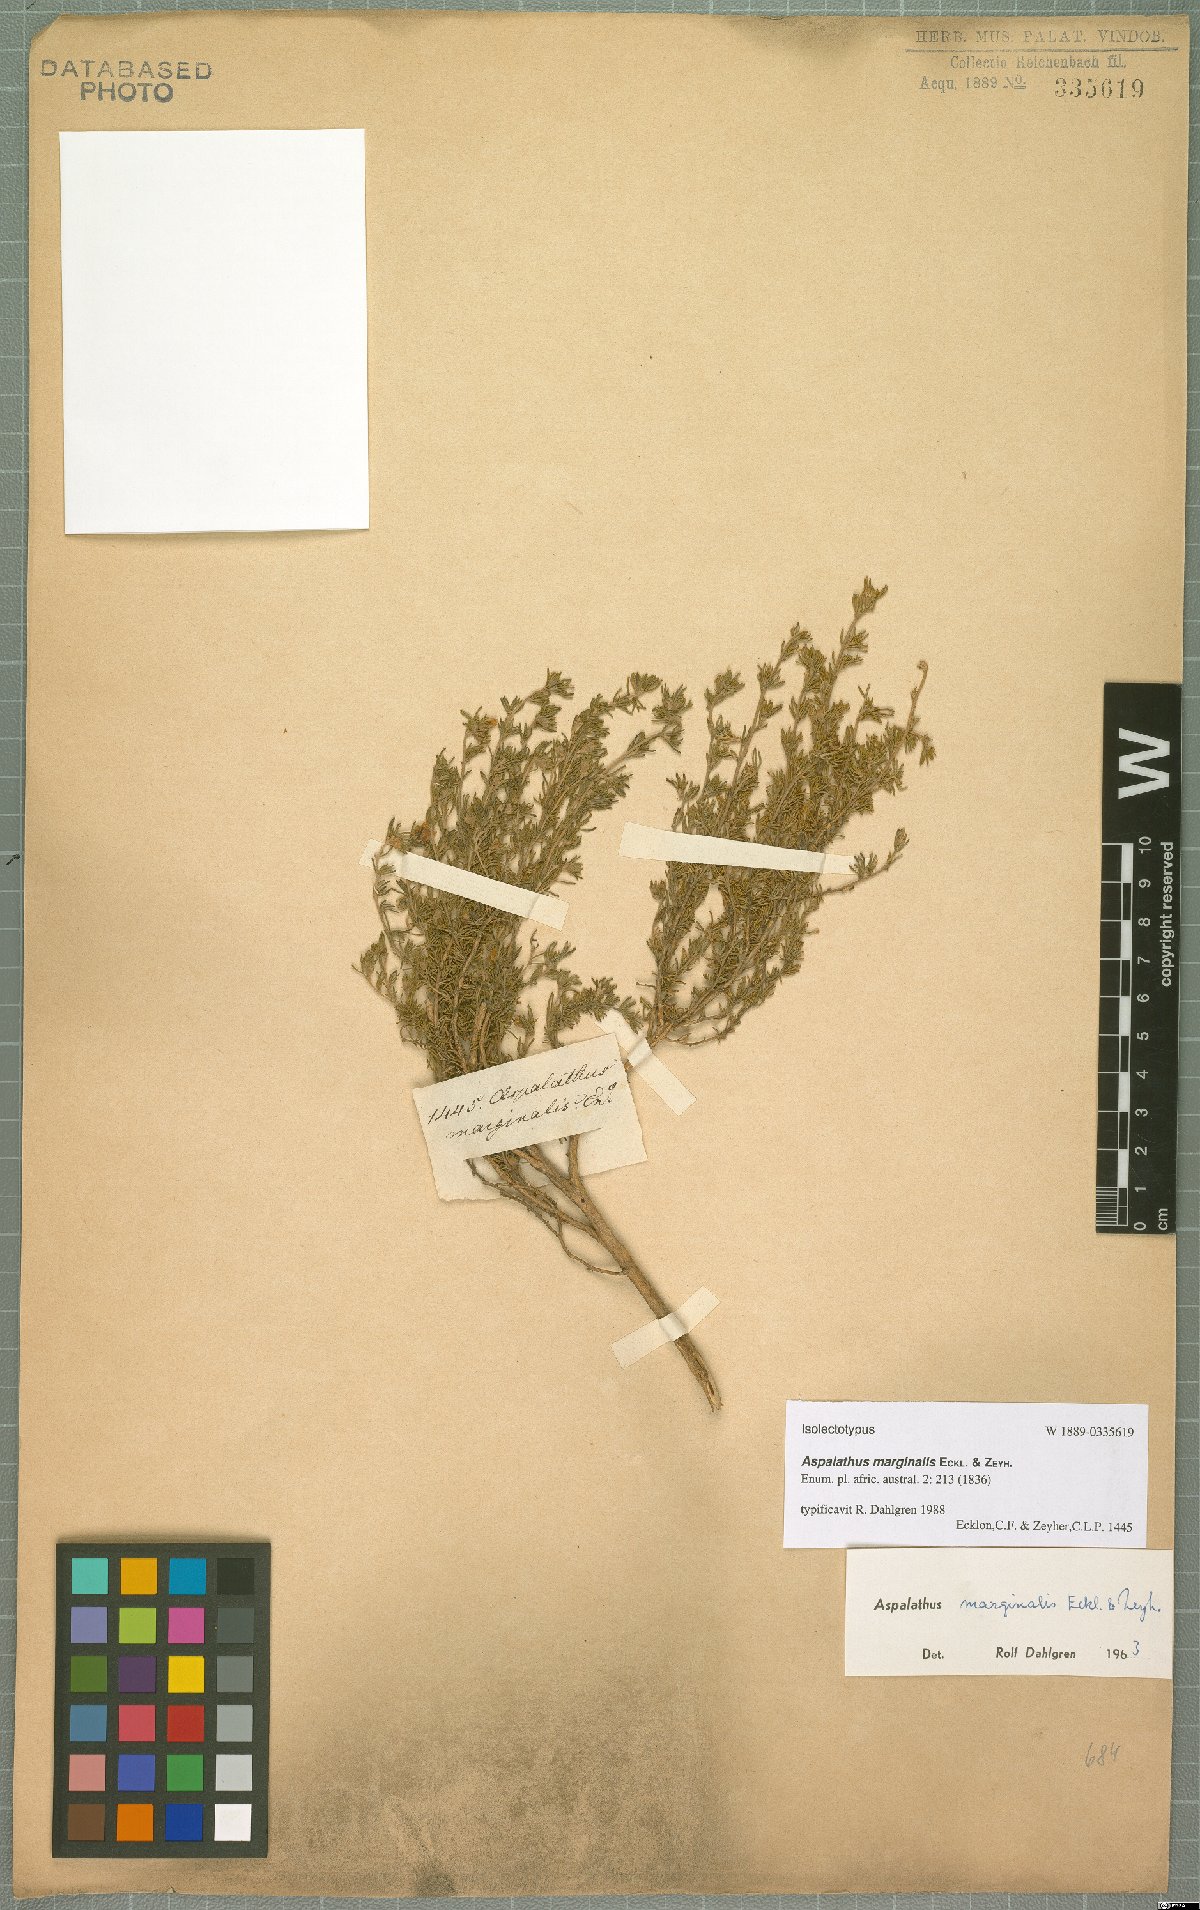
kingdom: Plantae
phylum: Tracheophyta
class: Magnoliopsida
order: Fabales
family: Fabaceae
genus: Aspalathus
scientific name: Aspalathus marginalis
